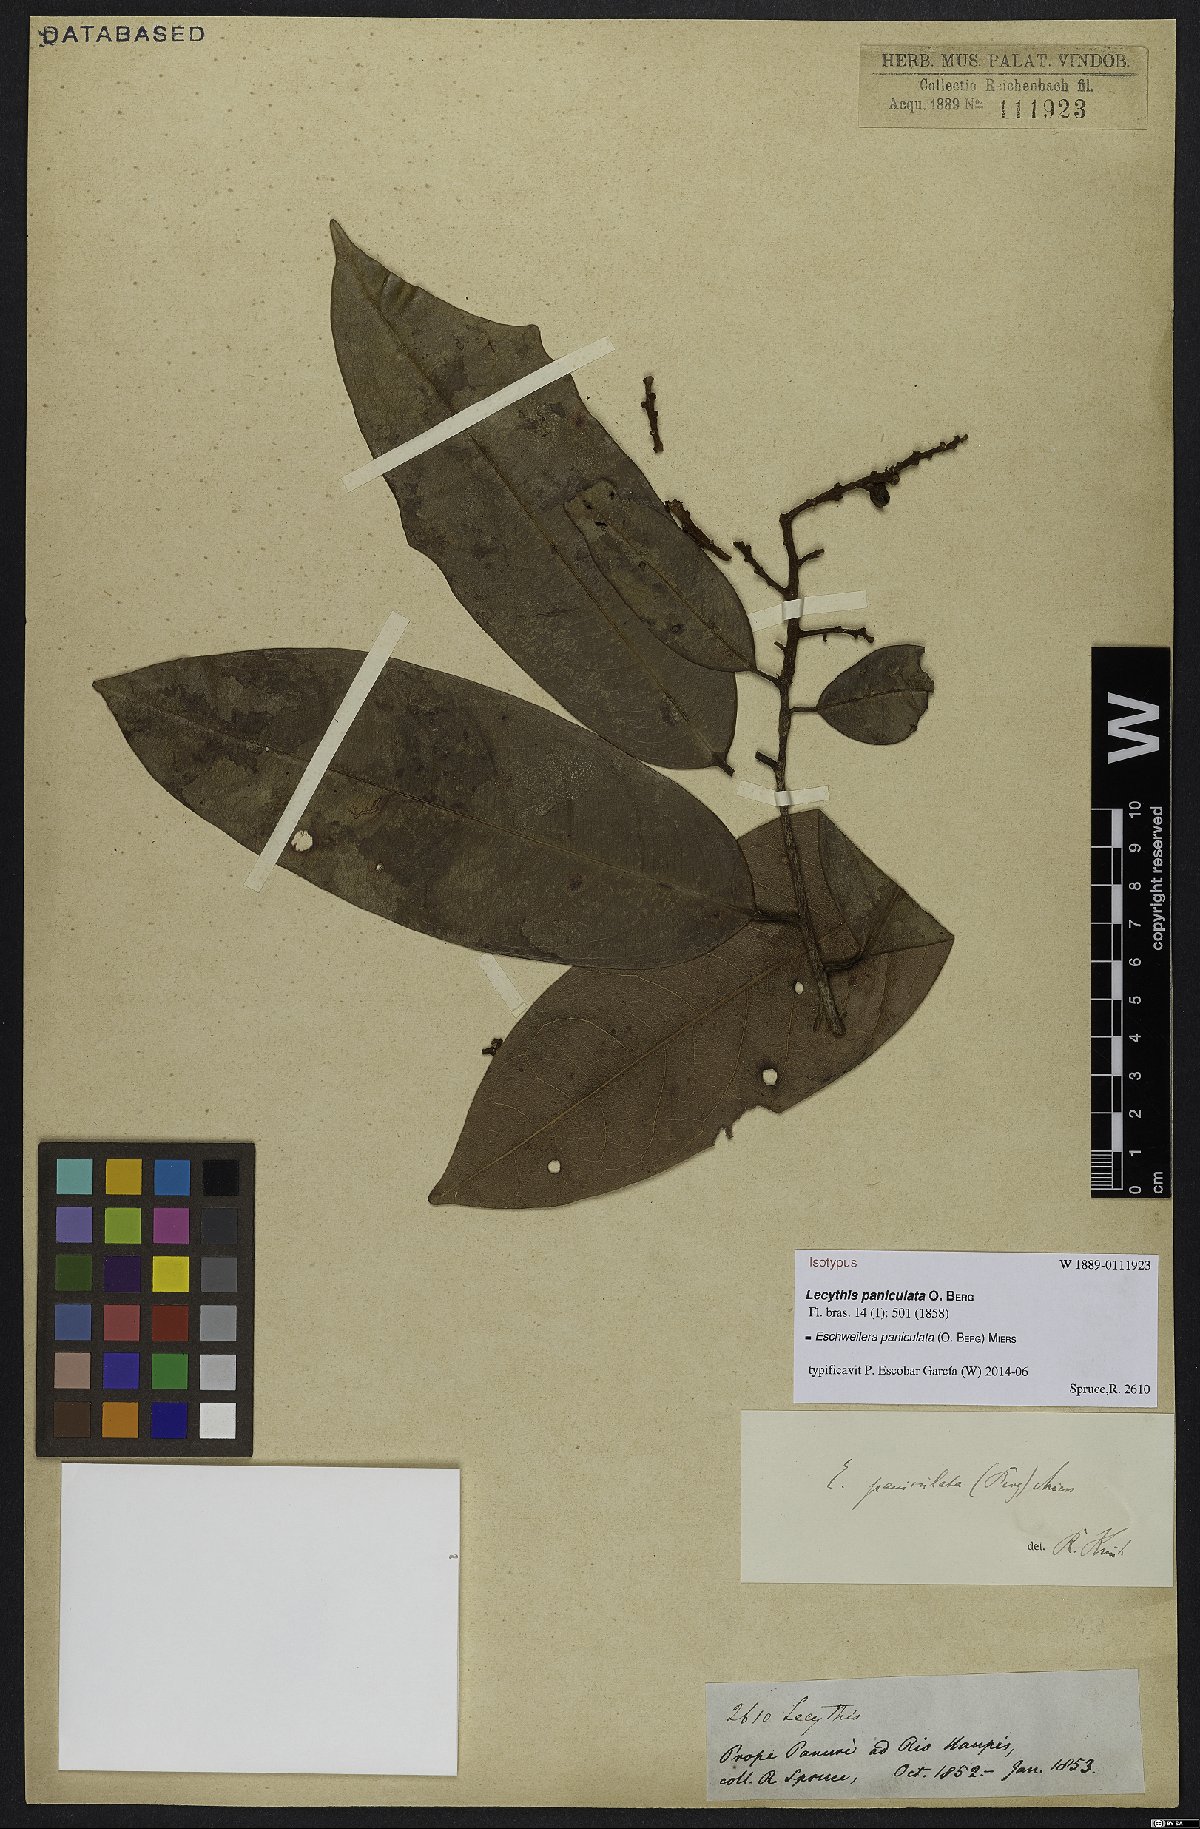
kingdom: Plantae
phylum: Tracheophyta
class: Magnoliopsida
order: Ericales
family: Lecythidaceae
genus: Eschweilera
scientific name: Eschweilera paniculata
